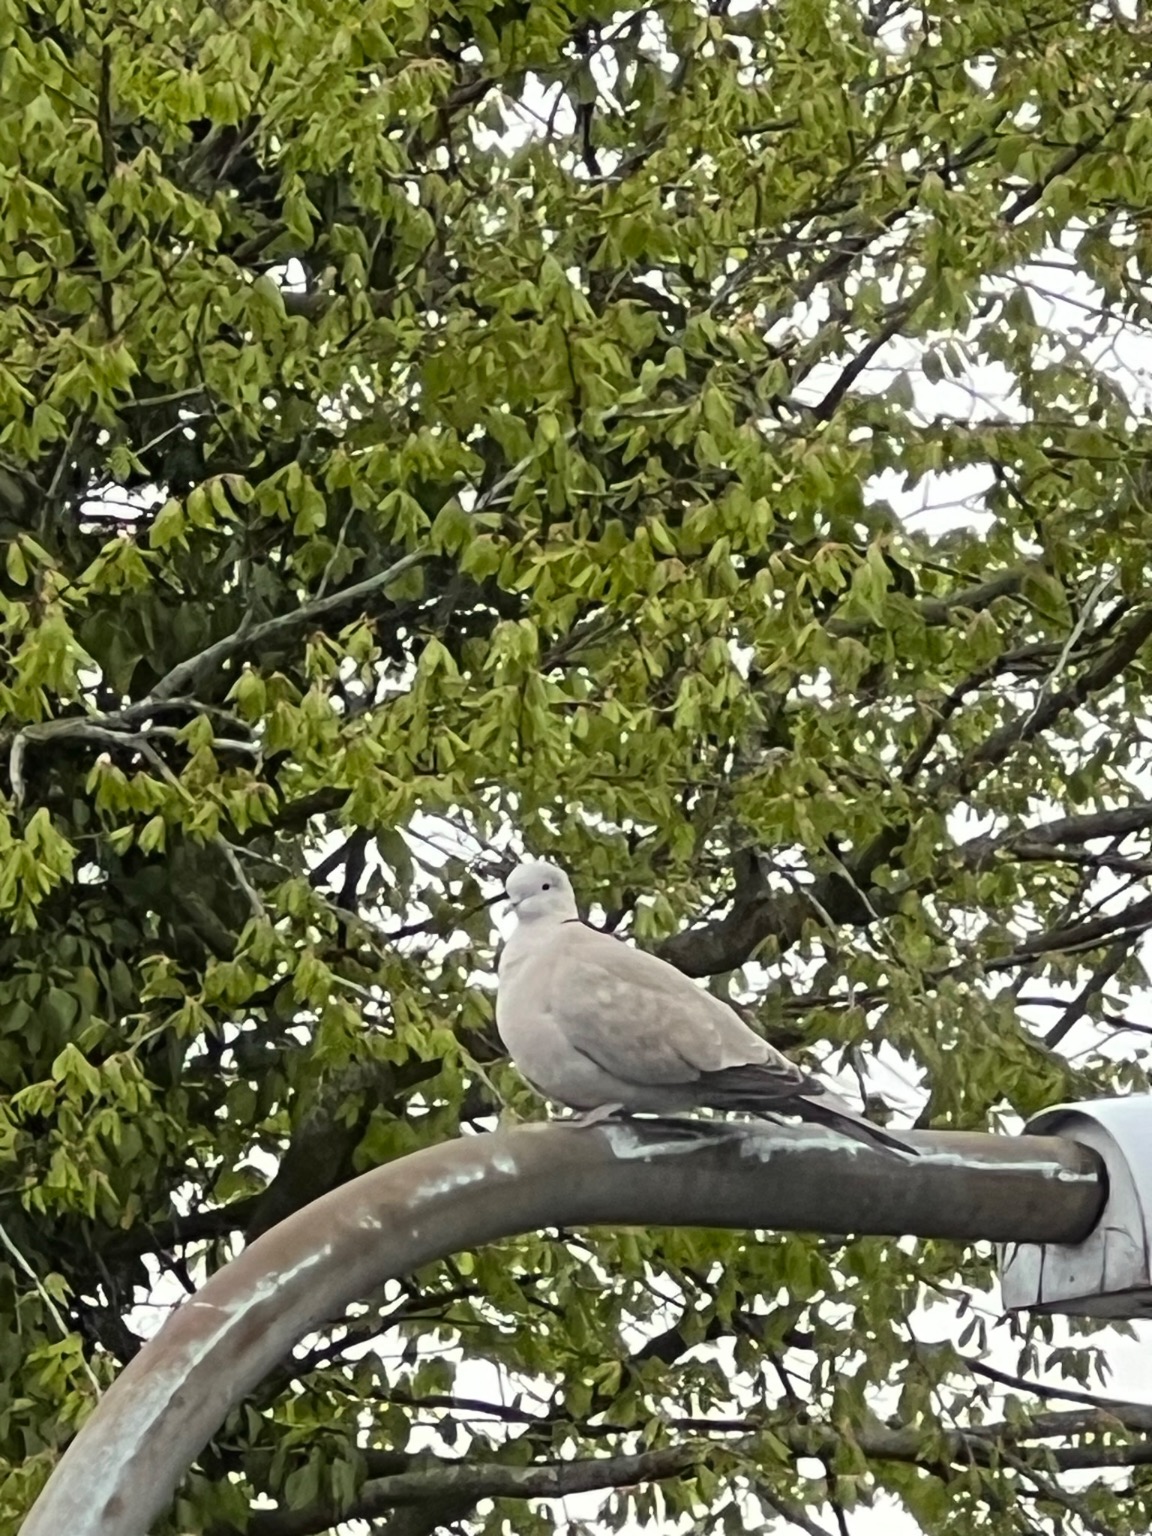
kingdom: Animalia
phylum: Chordata
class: Aves
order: Columbiformes
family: Columbidae
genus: Streptopelia
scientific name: Streptopelia decaocto
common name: Tyrkerdue
